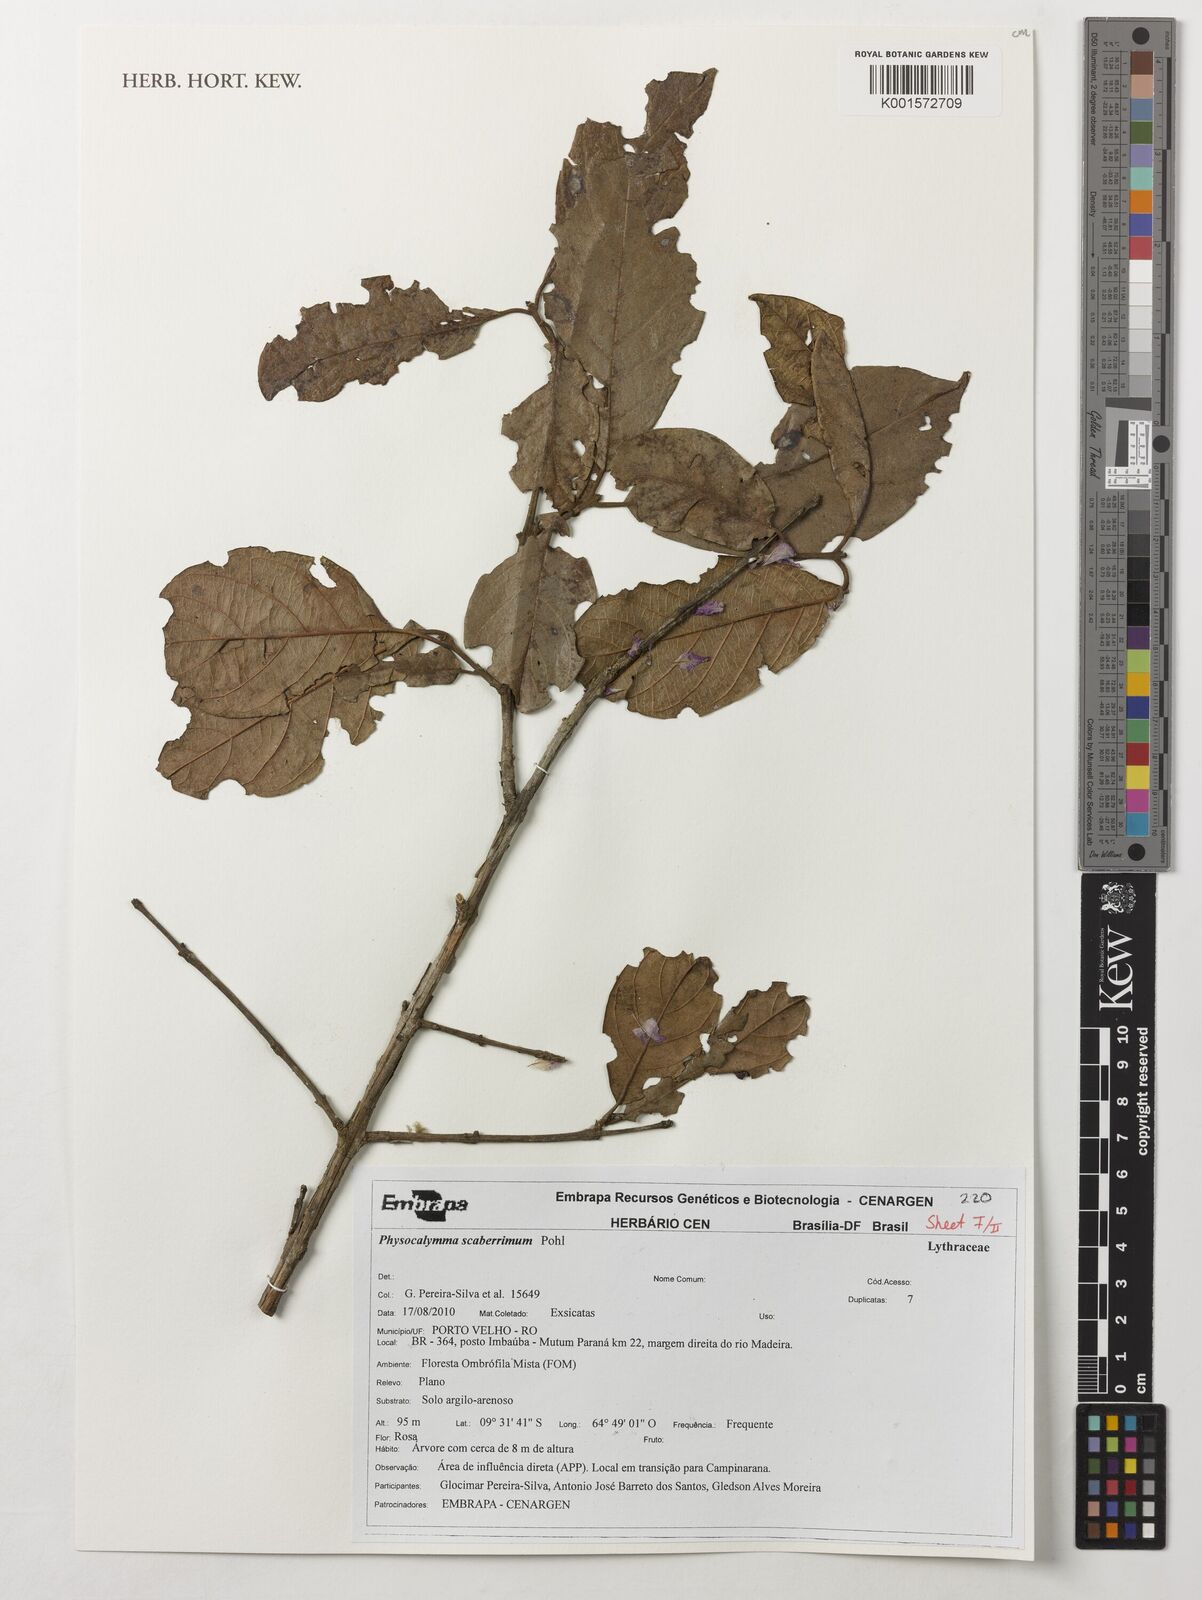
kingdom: Plantae
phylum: Tracheophyta
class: Magnoliopsida
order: Myrtales
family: Lythraceae
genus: Physocalymma
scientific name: Physocalymma scaberrimum
